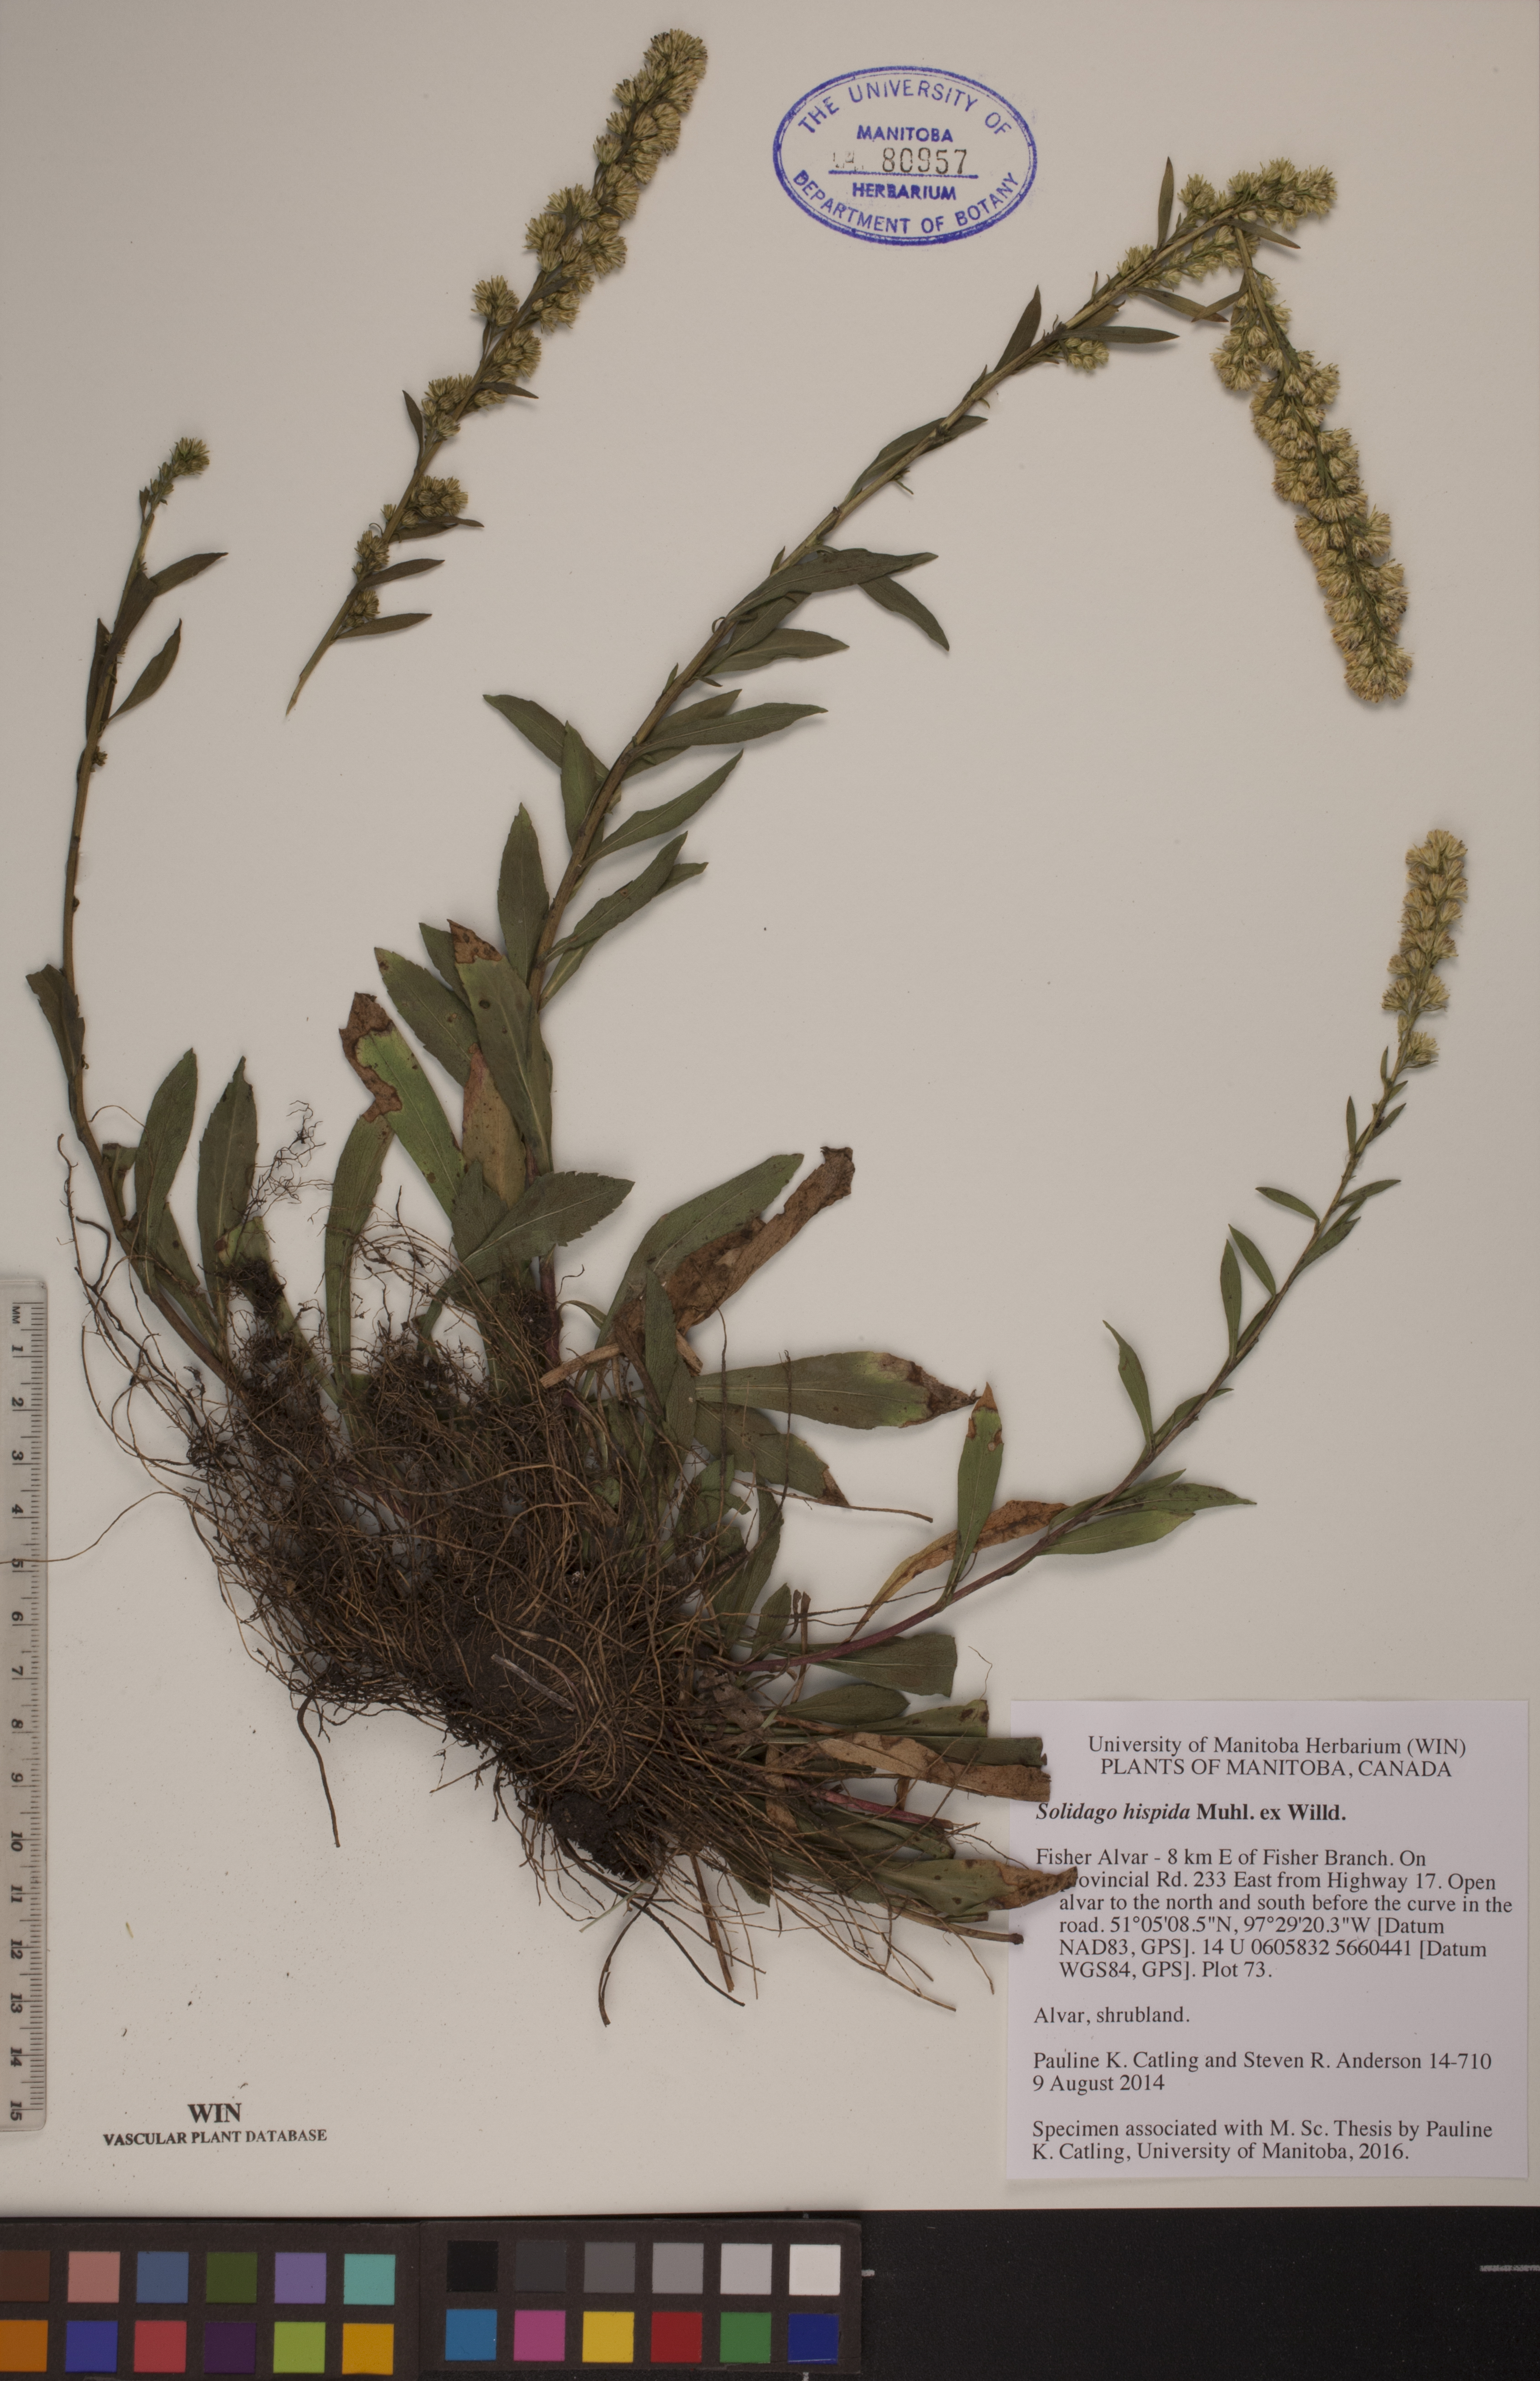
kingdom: Plantae
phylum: Tracheophyta
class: Magnoliopsida
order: Asterales
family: Asteraceae
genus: Solidago
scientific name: Solidago hispida
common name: Hairy goldenrod
